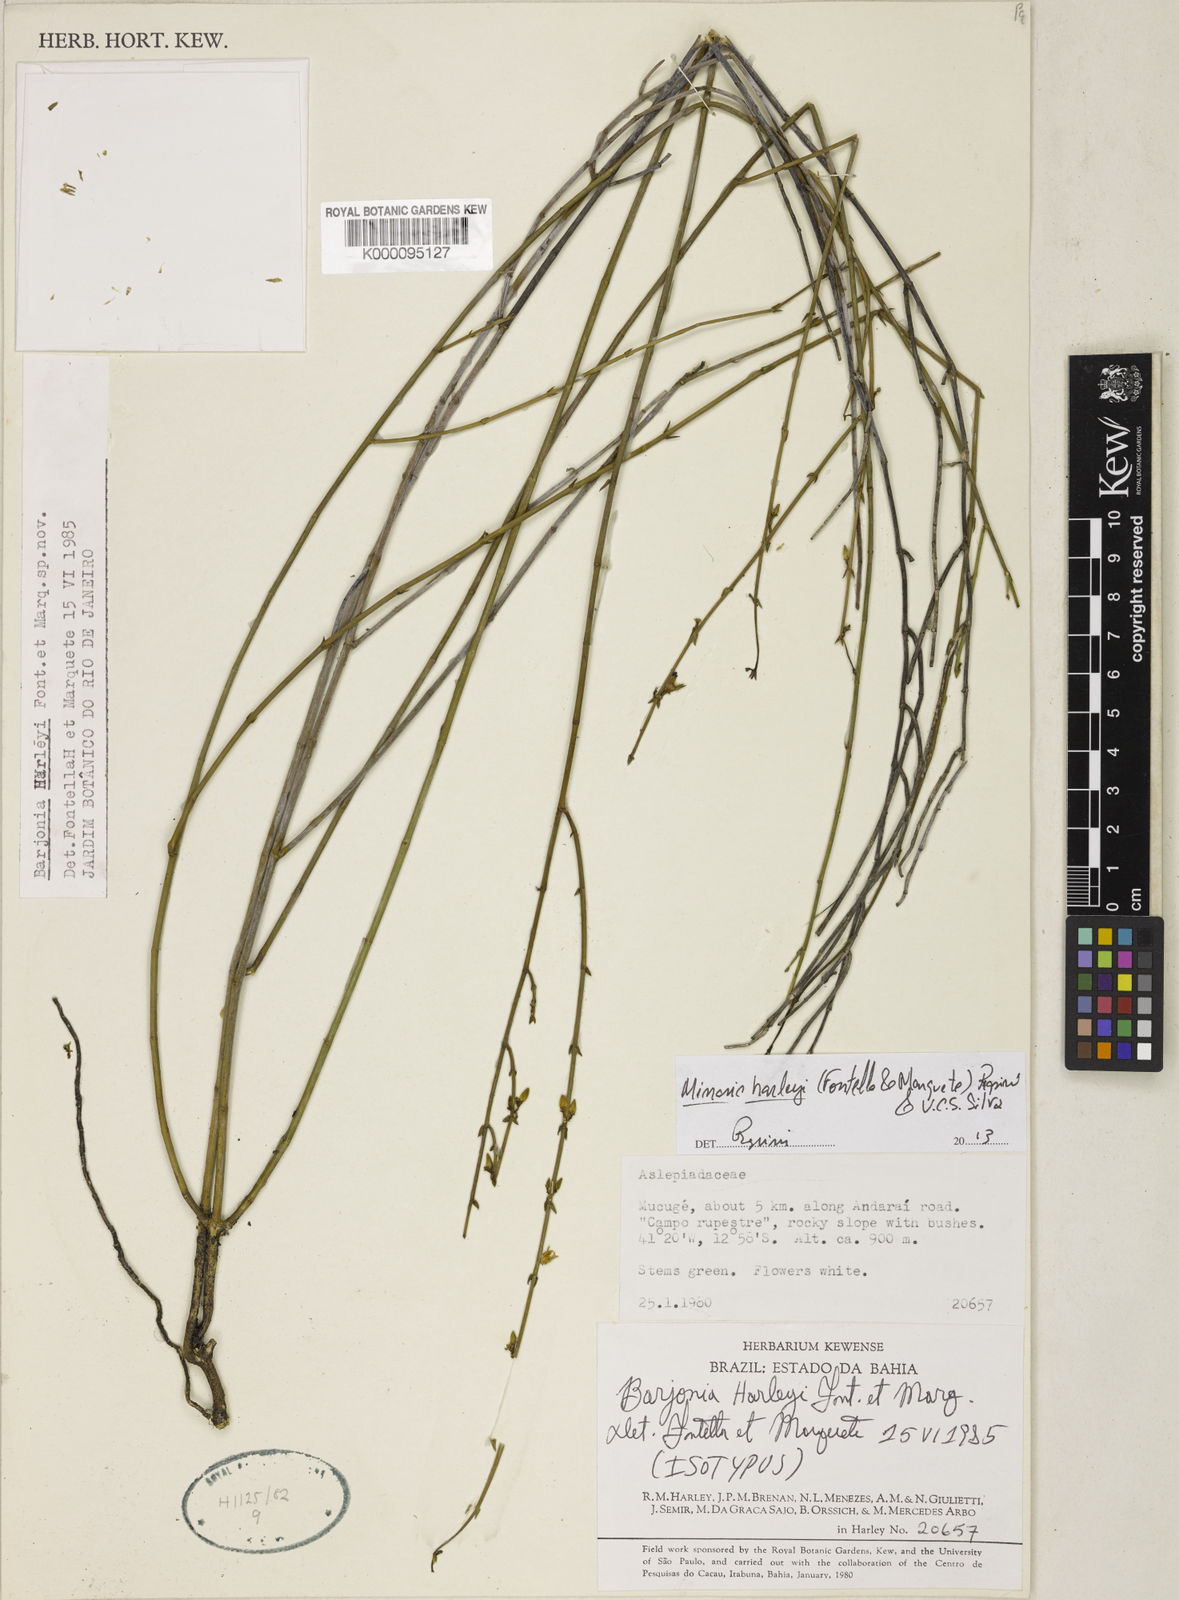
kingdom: Plantae
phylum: Tracheophyta
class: Magnoliopsida
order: Gentianales
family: Apocynaceae
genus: Minaria
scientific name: Minaria harleyi
